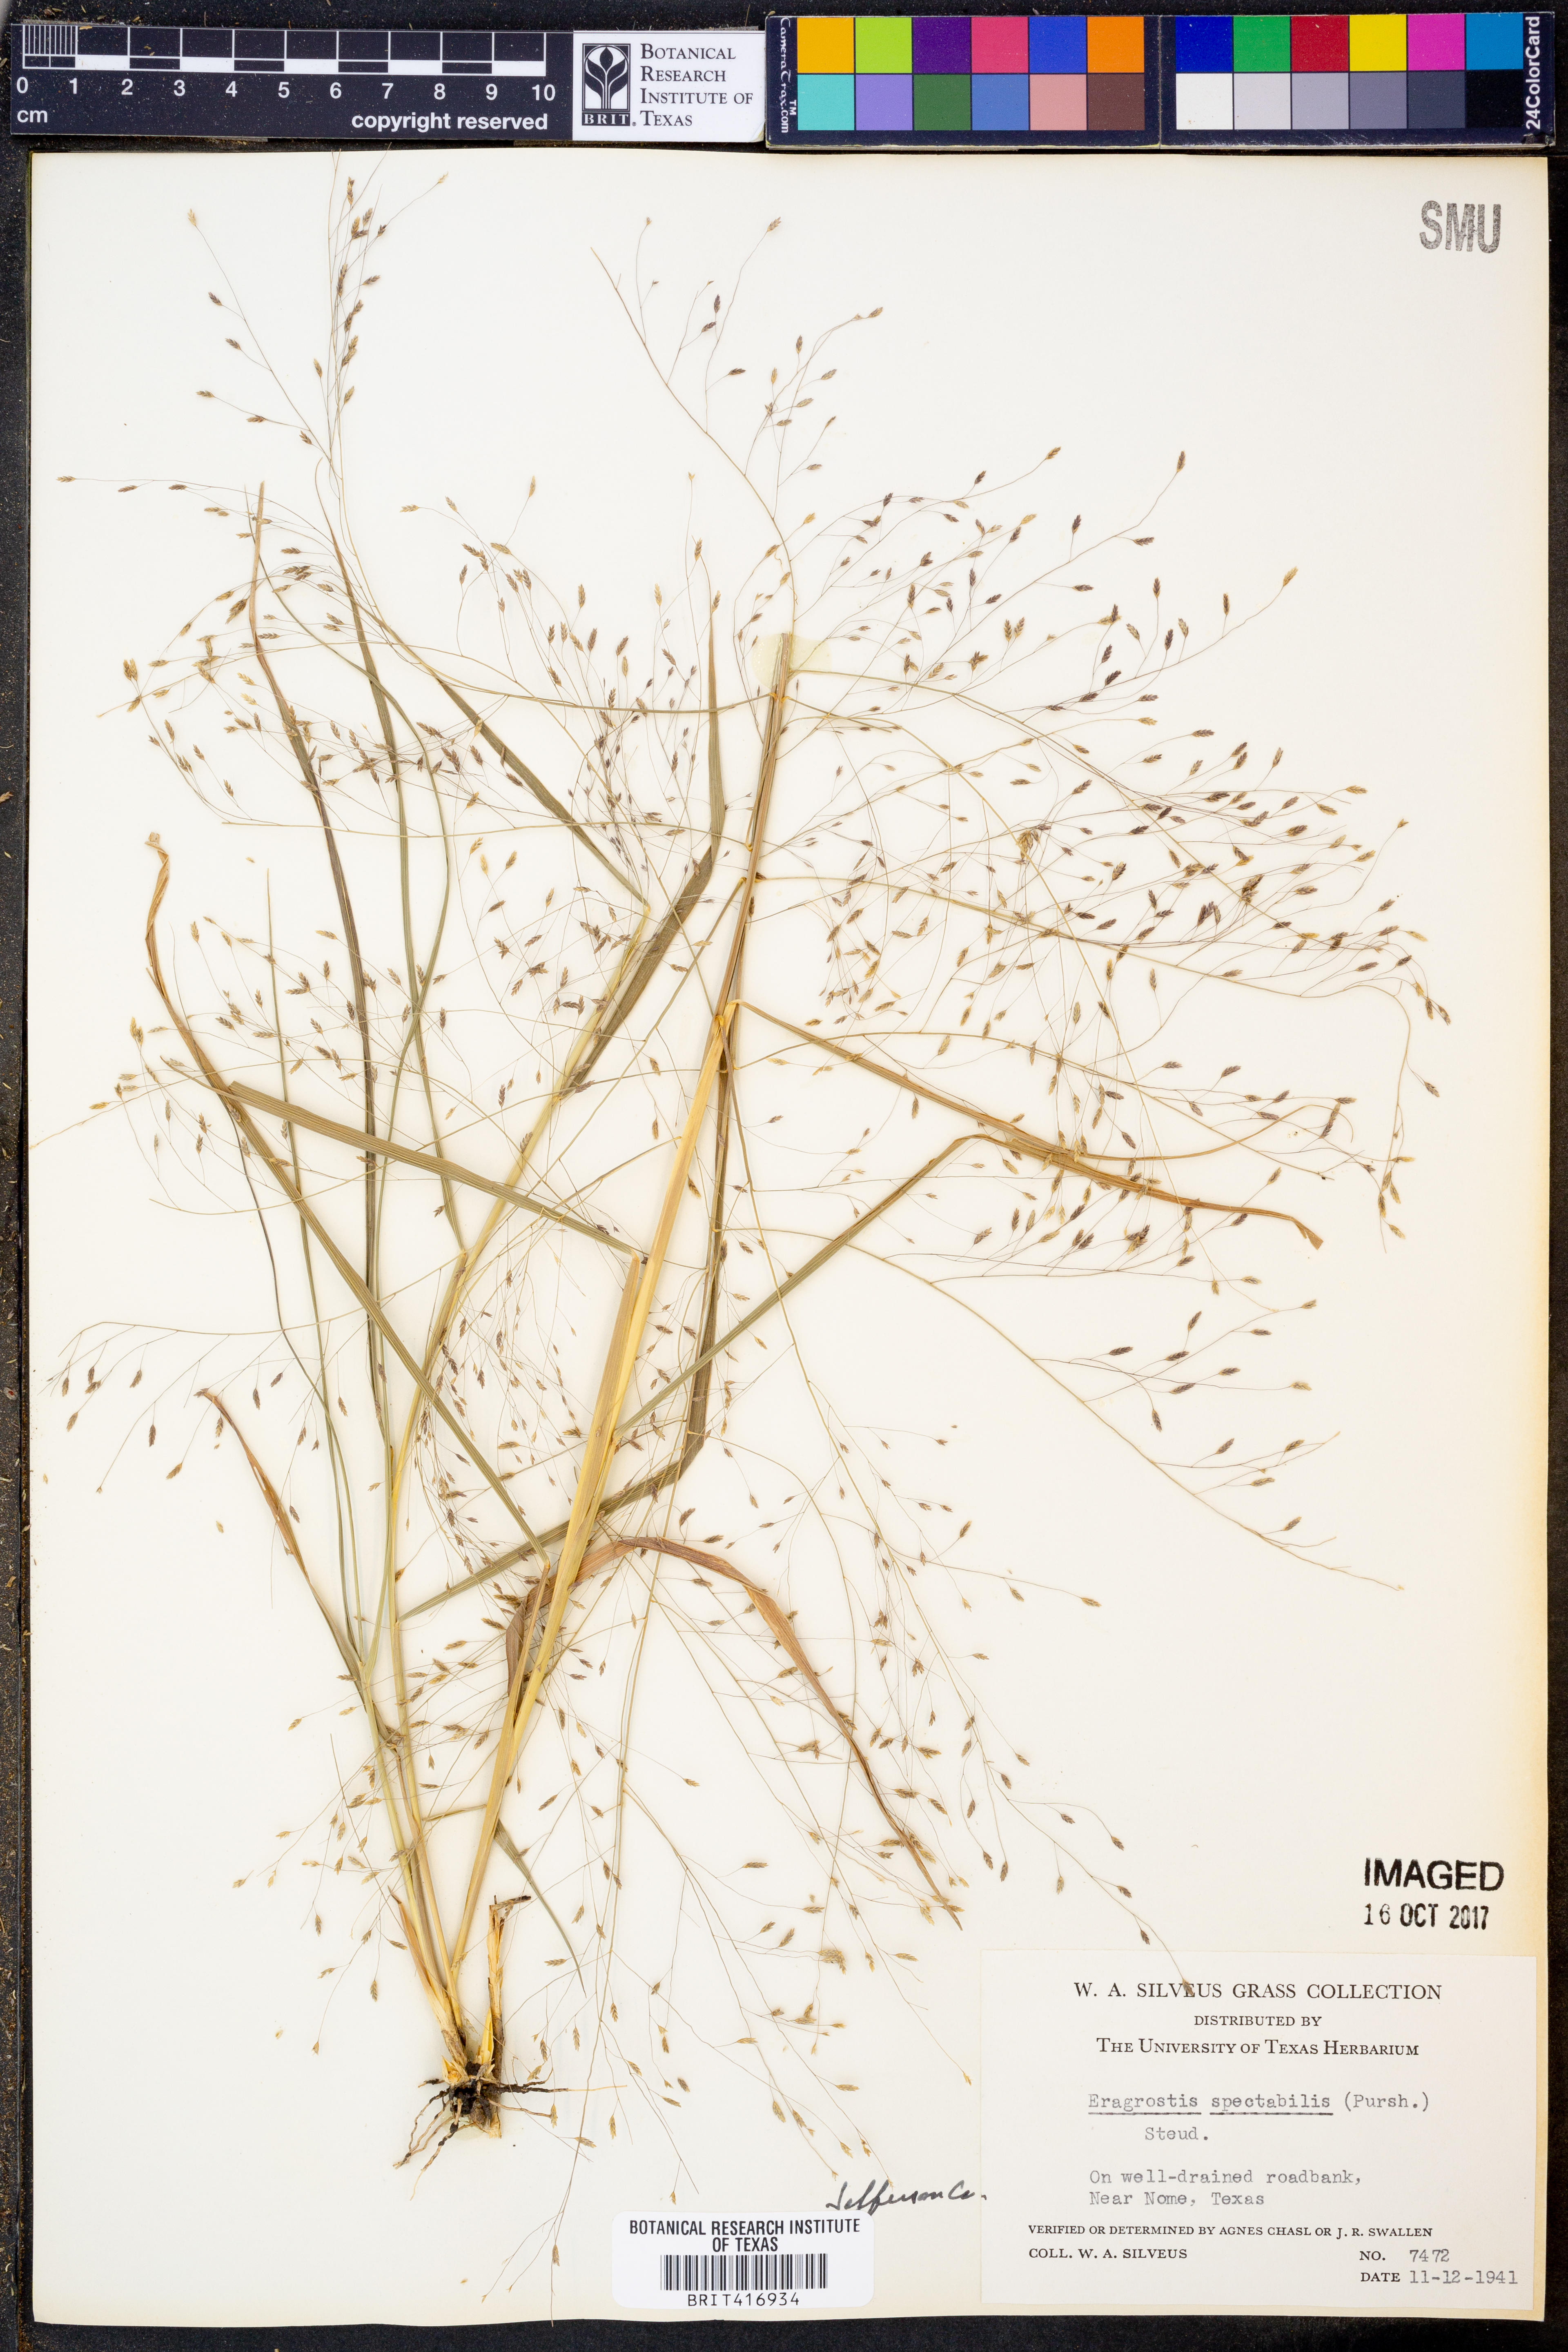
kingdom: Plantae
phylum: Tracheophyta
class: Liliopsida
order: Poales
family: Poaceae
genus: Eragrostis
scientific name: Eragrostis spectabilis
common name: Petticoat-climber
